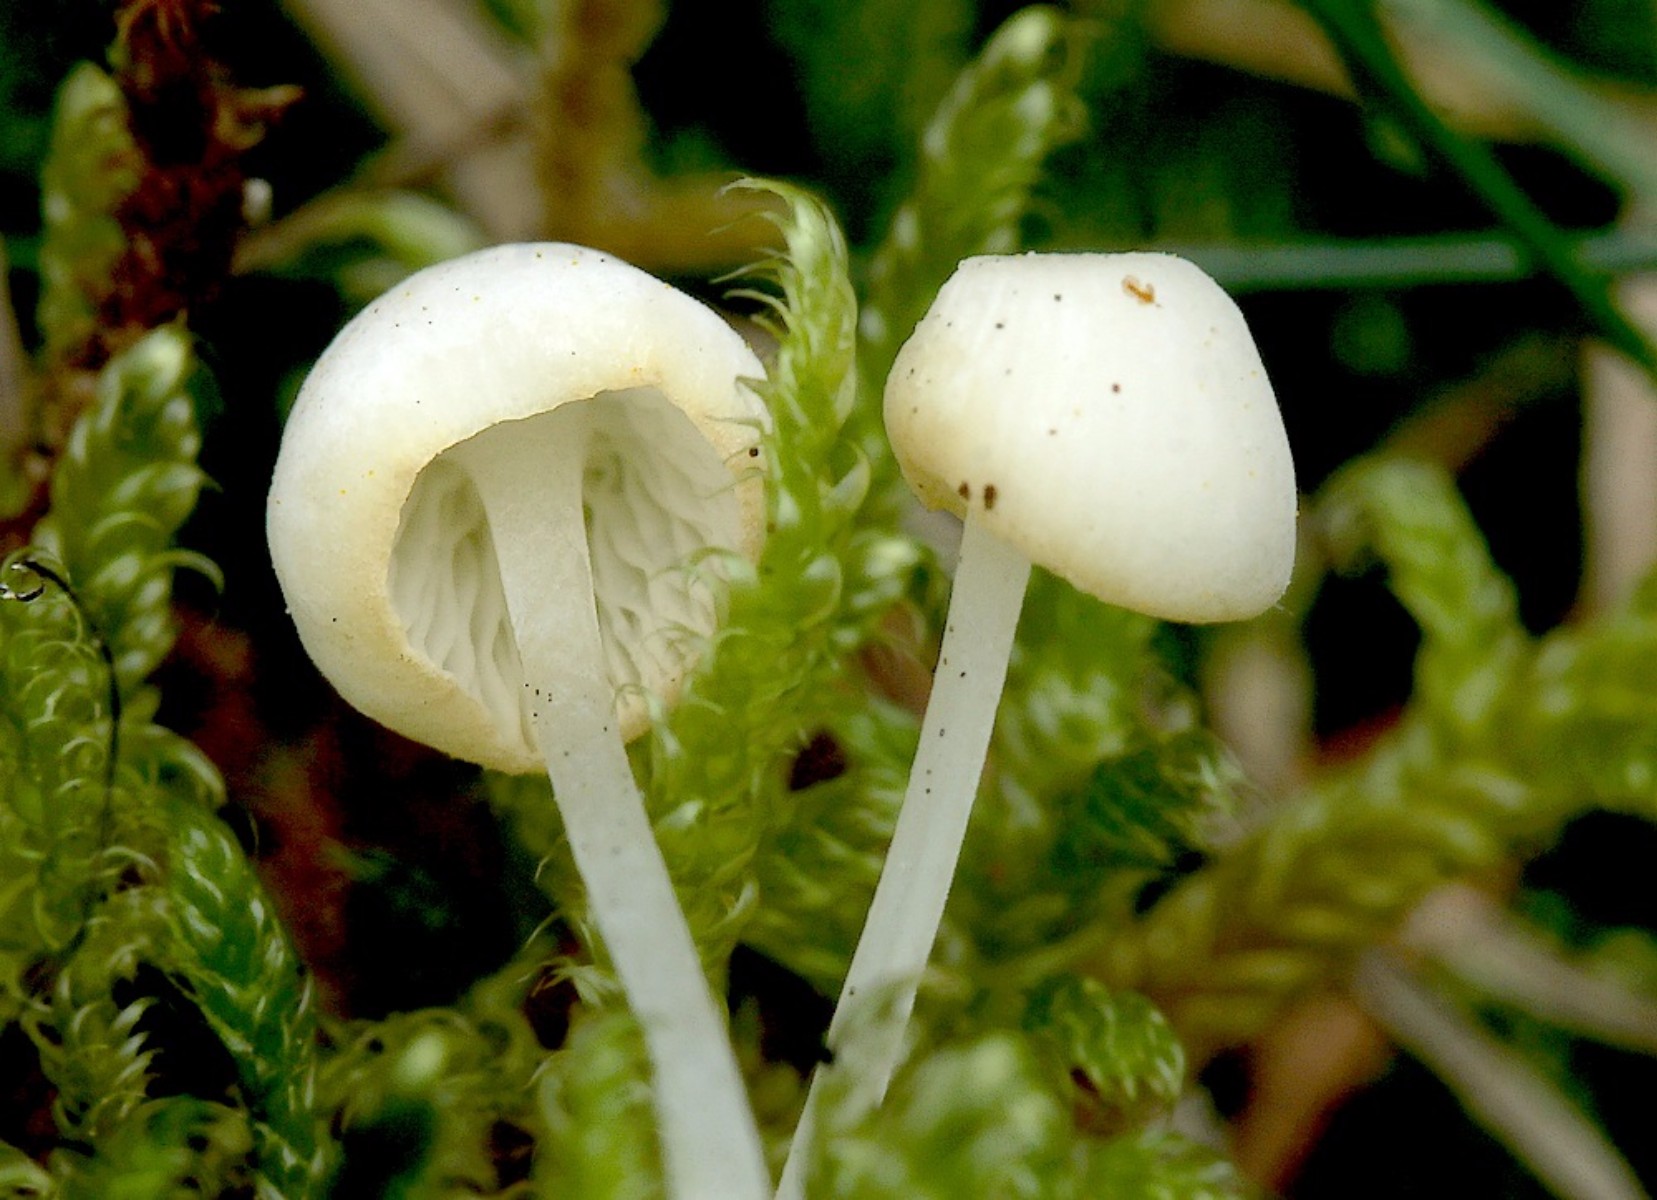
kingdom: Fungi
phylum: Basidiomycota
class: Agaricomycetes
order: Agaricales
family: Mycenaceae
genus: Hemimycena
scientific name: Hemimycena cucullata
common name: tætbladet huesvamp
